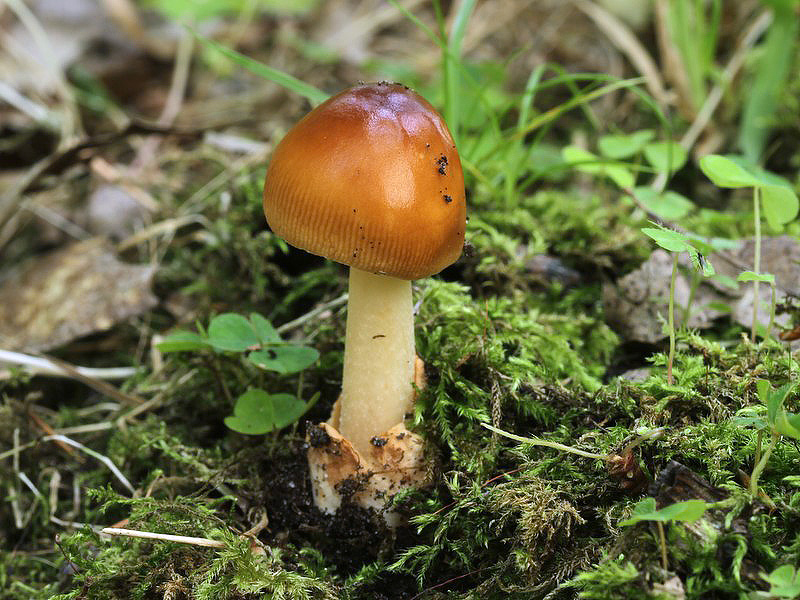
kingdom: Fungi
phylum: Basidiomycota
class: Agaricomycetes
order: Agaricales
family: Amanitaceae
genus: Amanita
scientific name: Amanita fulva
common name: brun kam-fluesvamp
